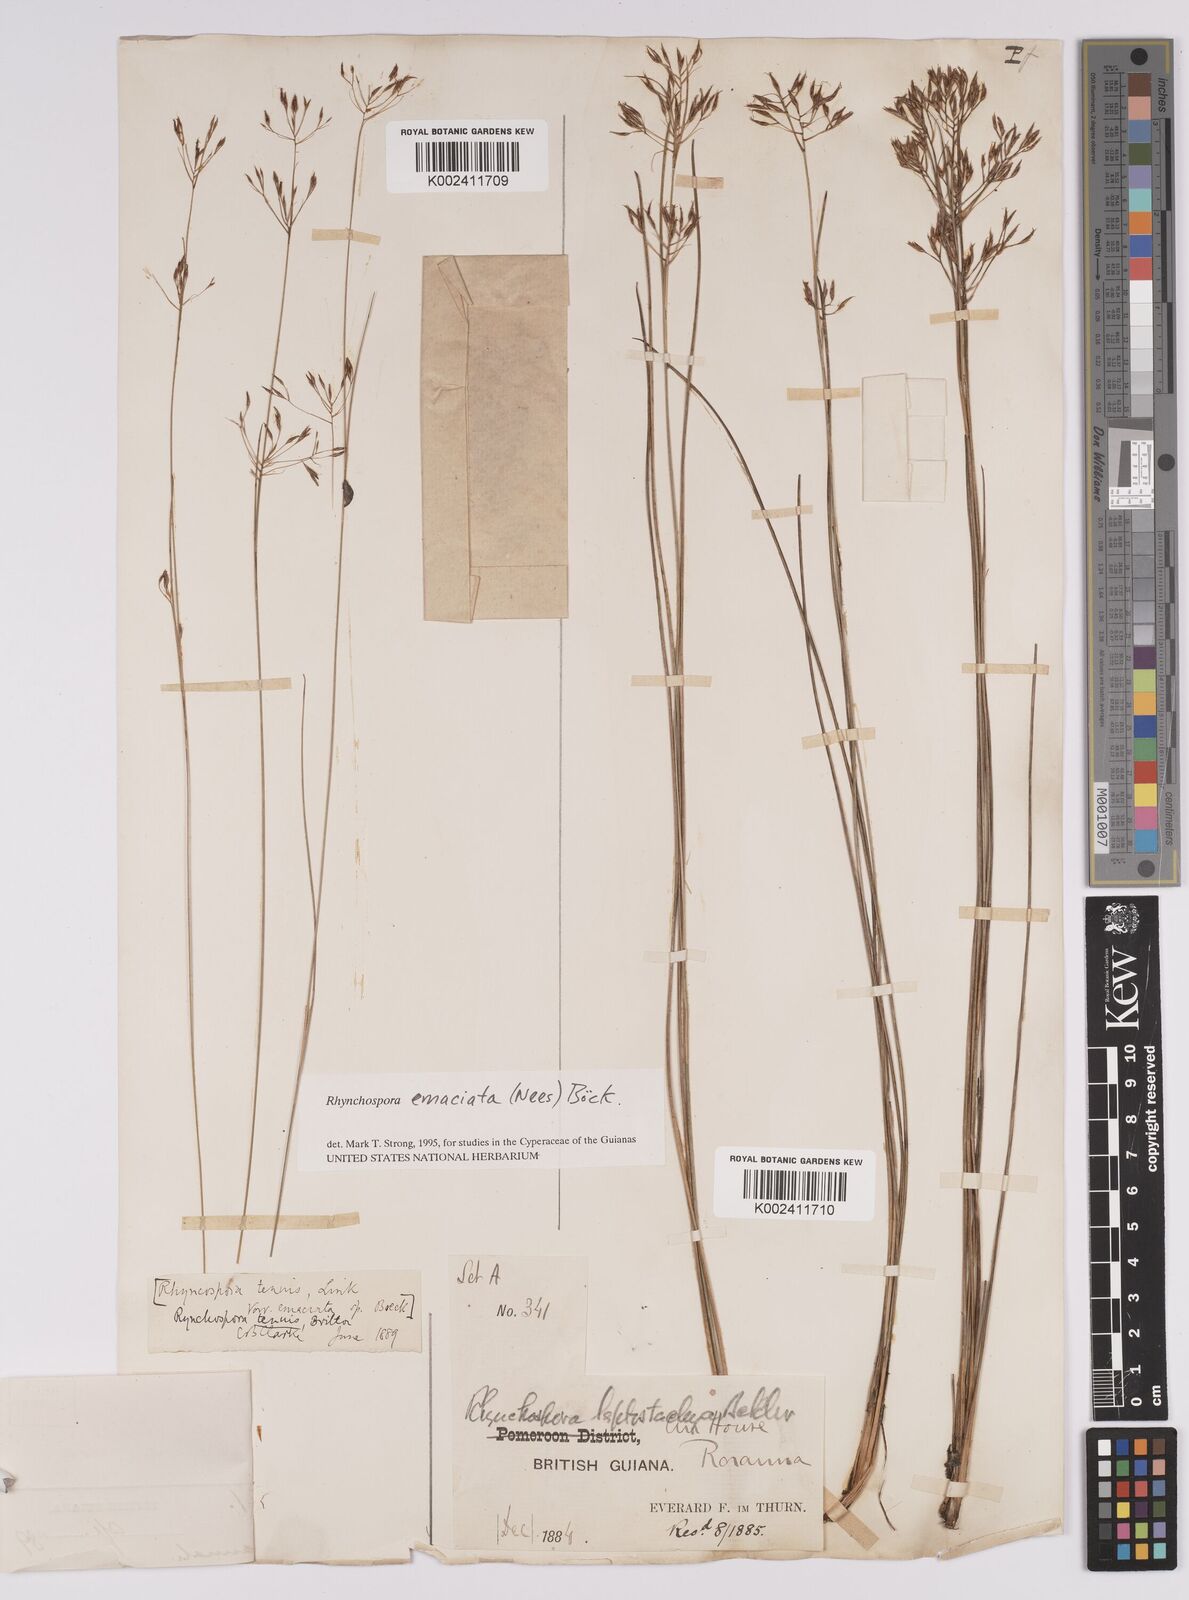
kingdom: Plantae
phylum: Tracheophyta
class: Liliopsida
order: Poales
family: Cyperaceae
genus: Rhynchospora
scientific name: Rhynchospora emaciata
